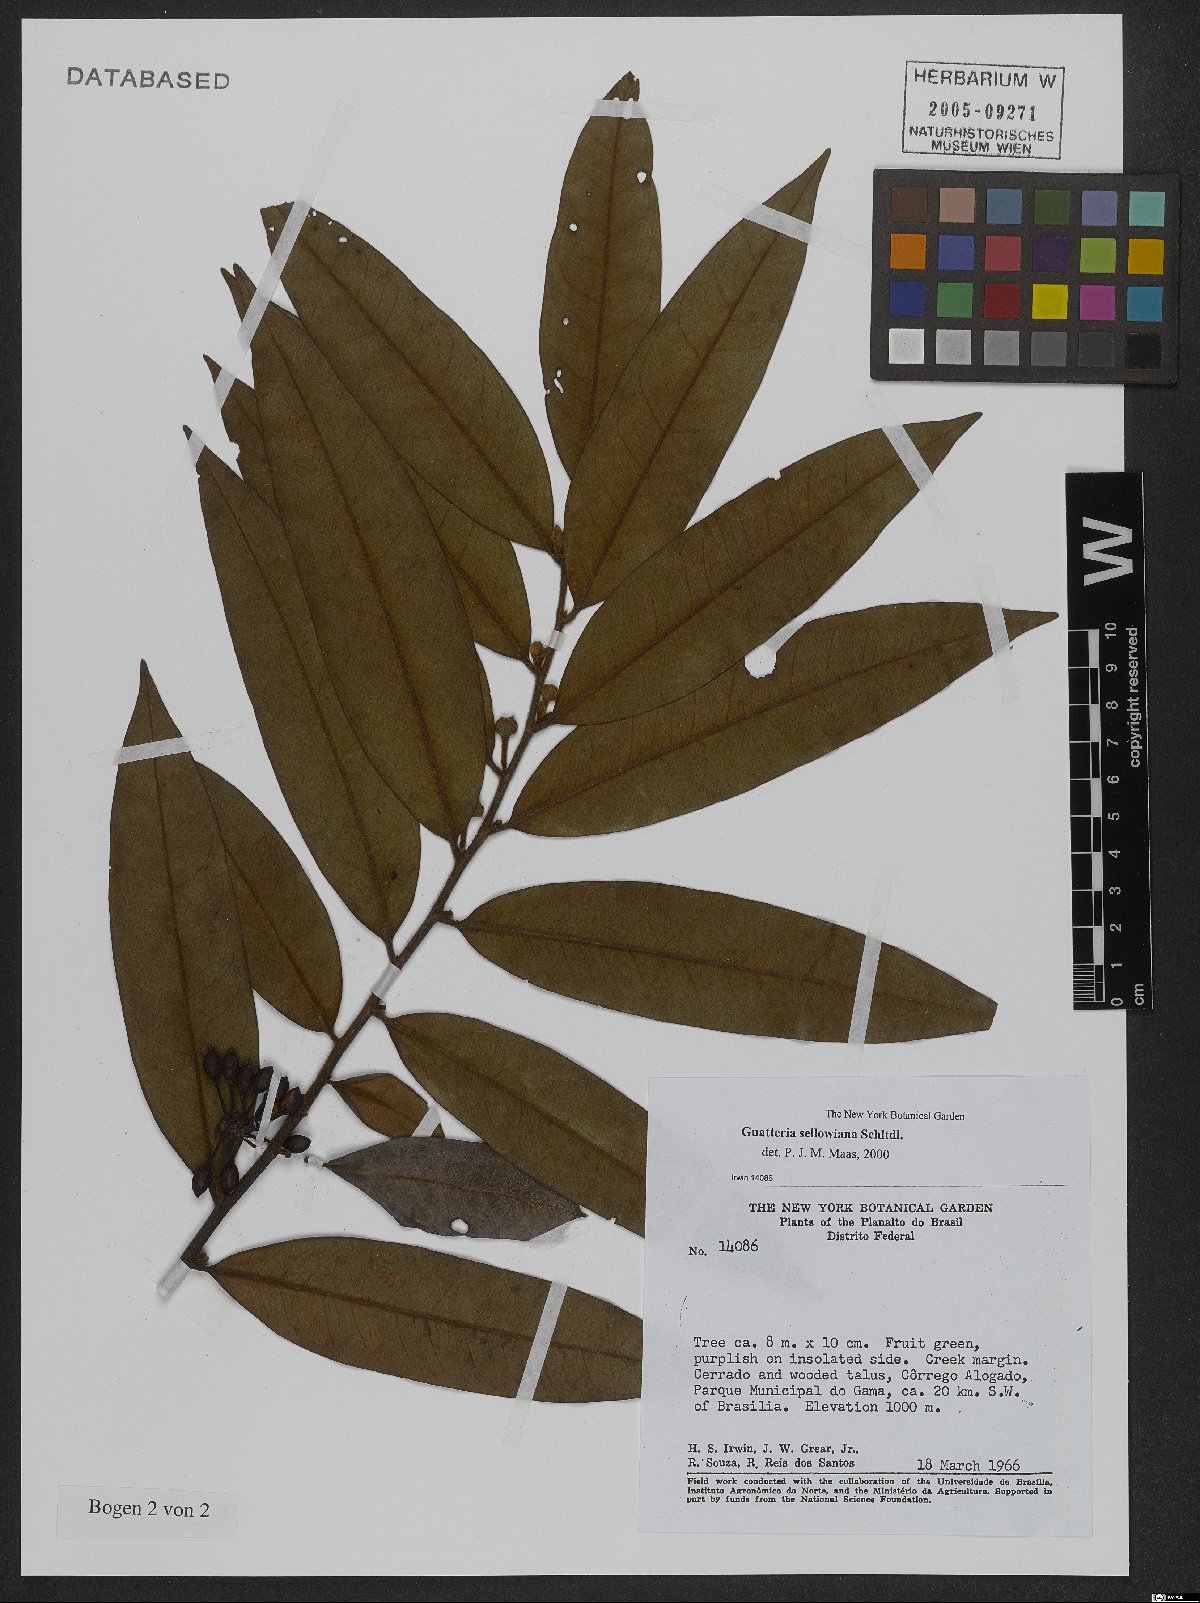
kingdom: Plantae
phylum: Tracheophyta
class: Magnoliopsida
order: Magnoliales
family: Annonaceae
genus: Guatteria
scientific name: Guatteria sellowiana
